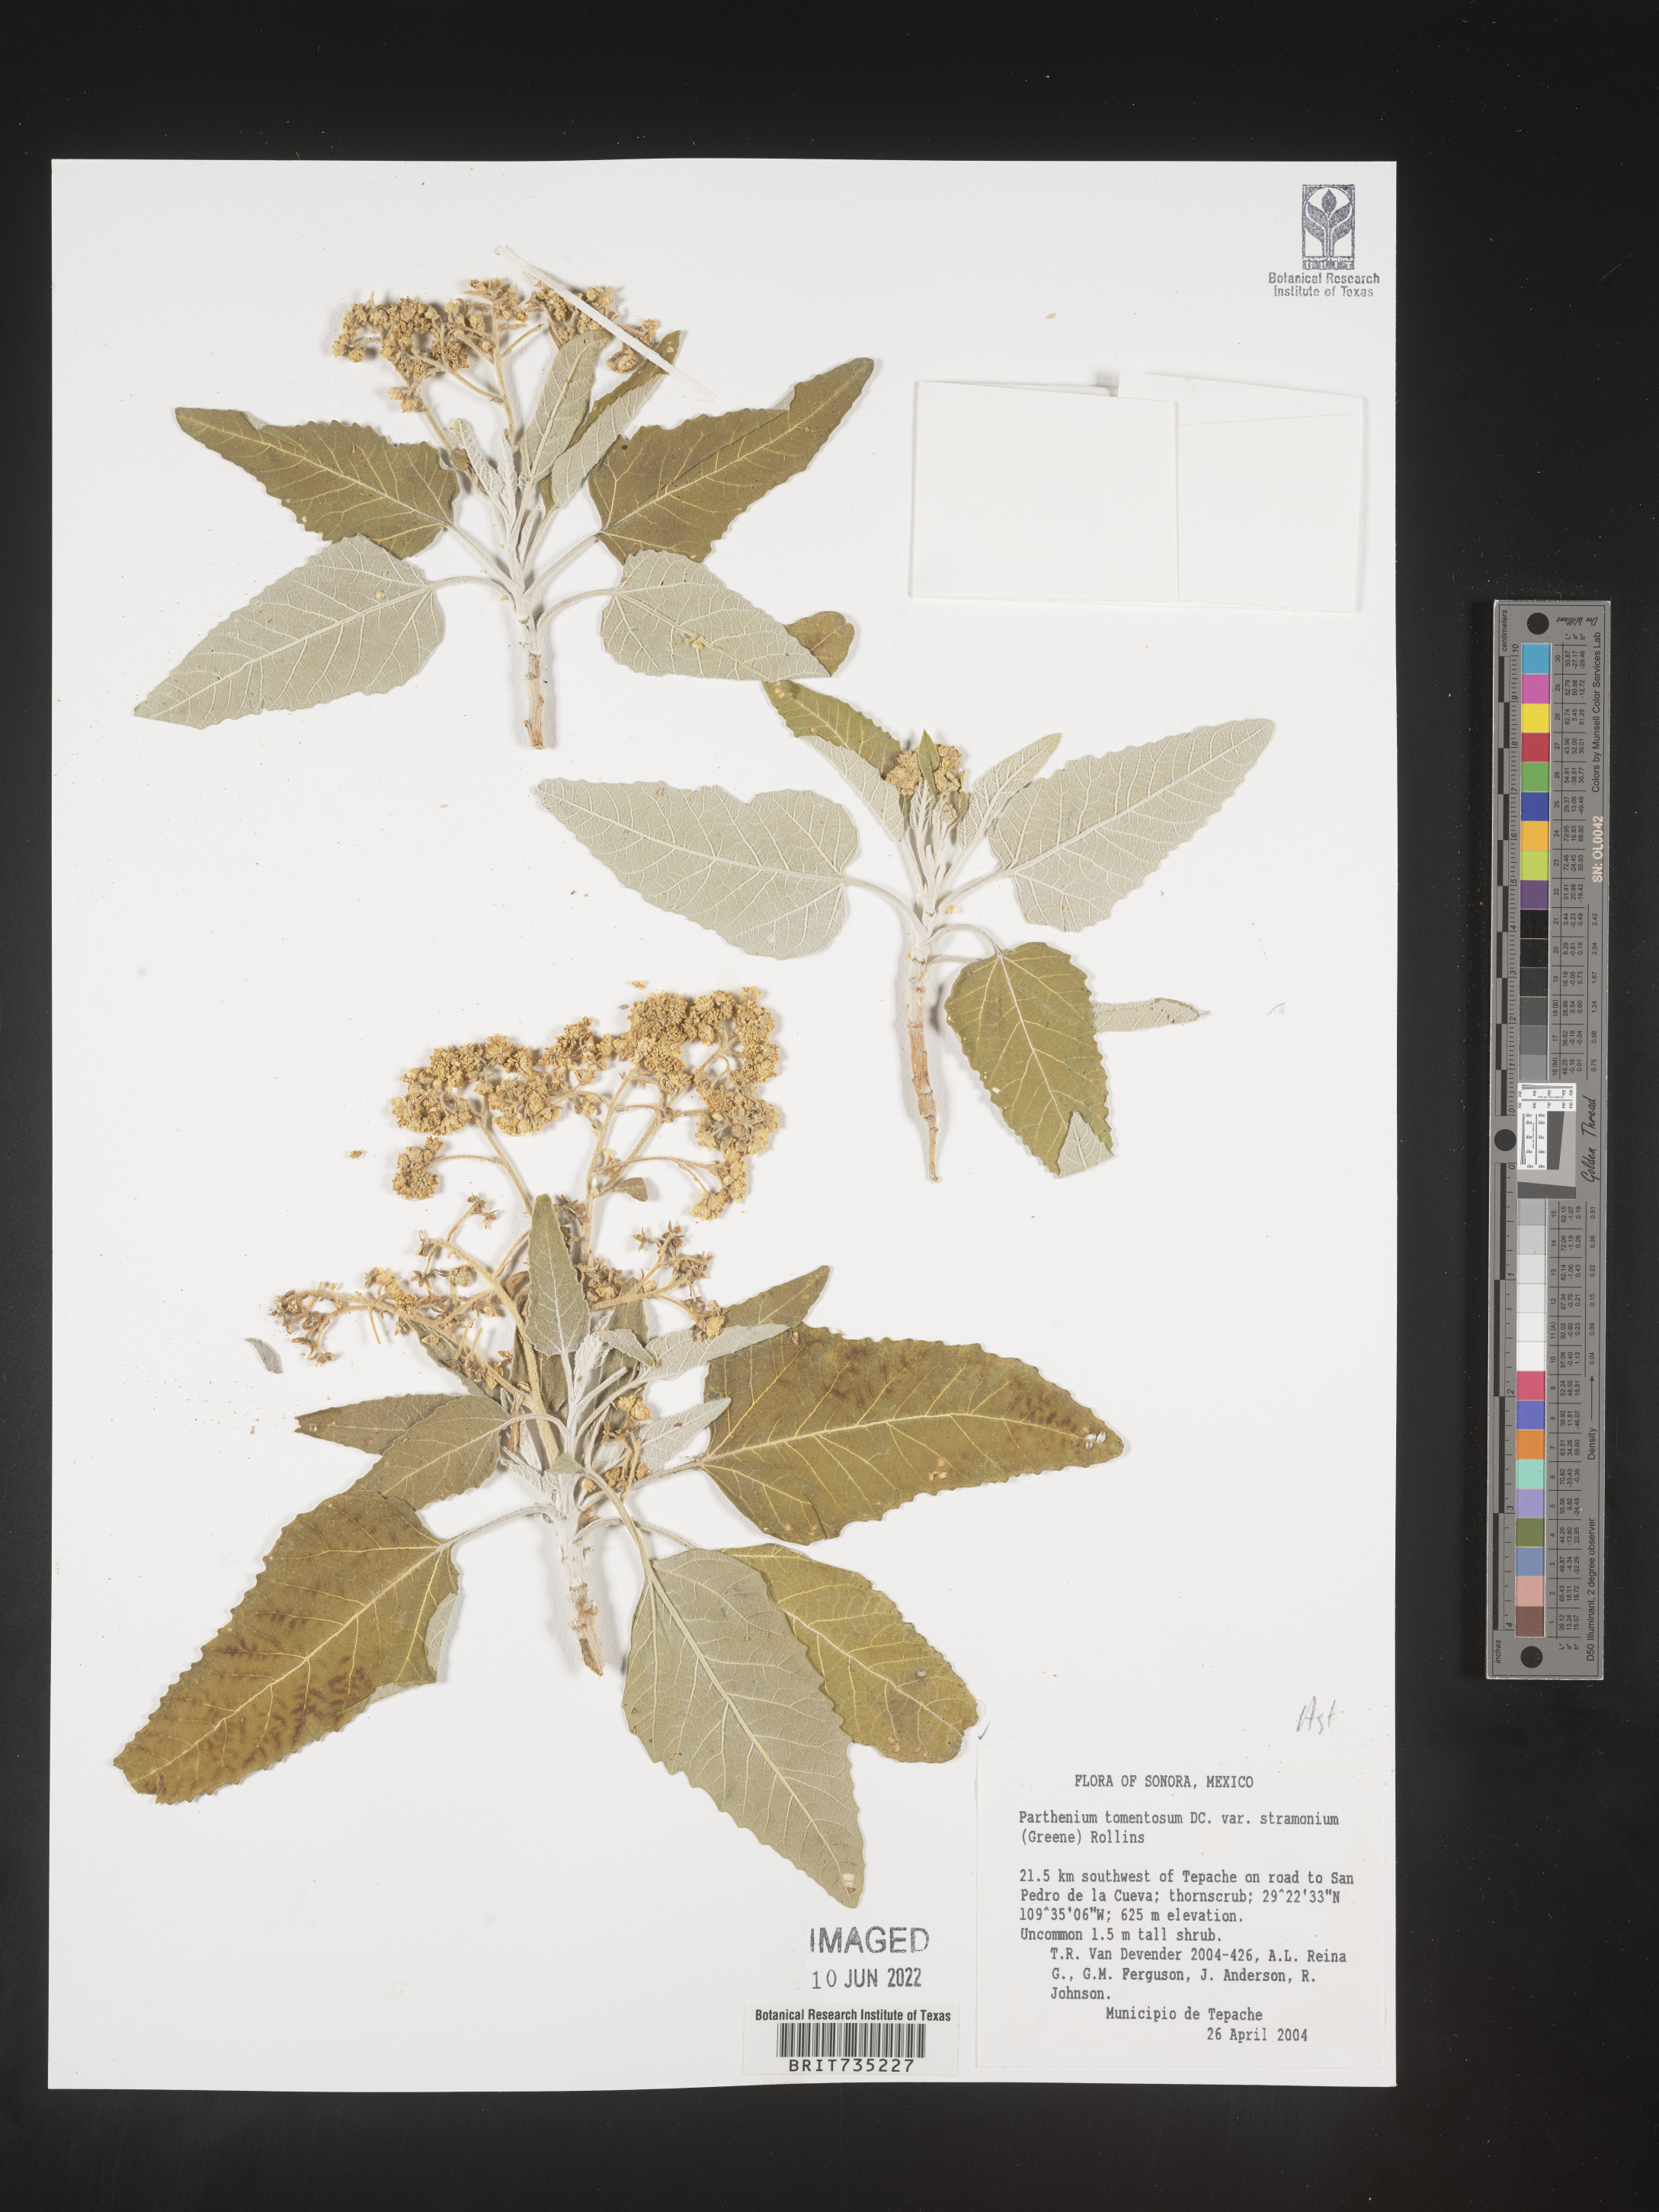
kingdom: Plantae
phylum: Tracheophyta
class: Magnoliopsida
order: Asterales
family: Asteraceae
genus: Parthenium
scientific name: Parthenium
